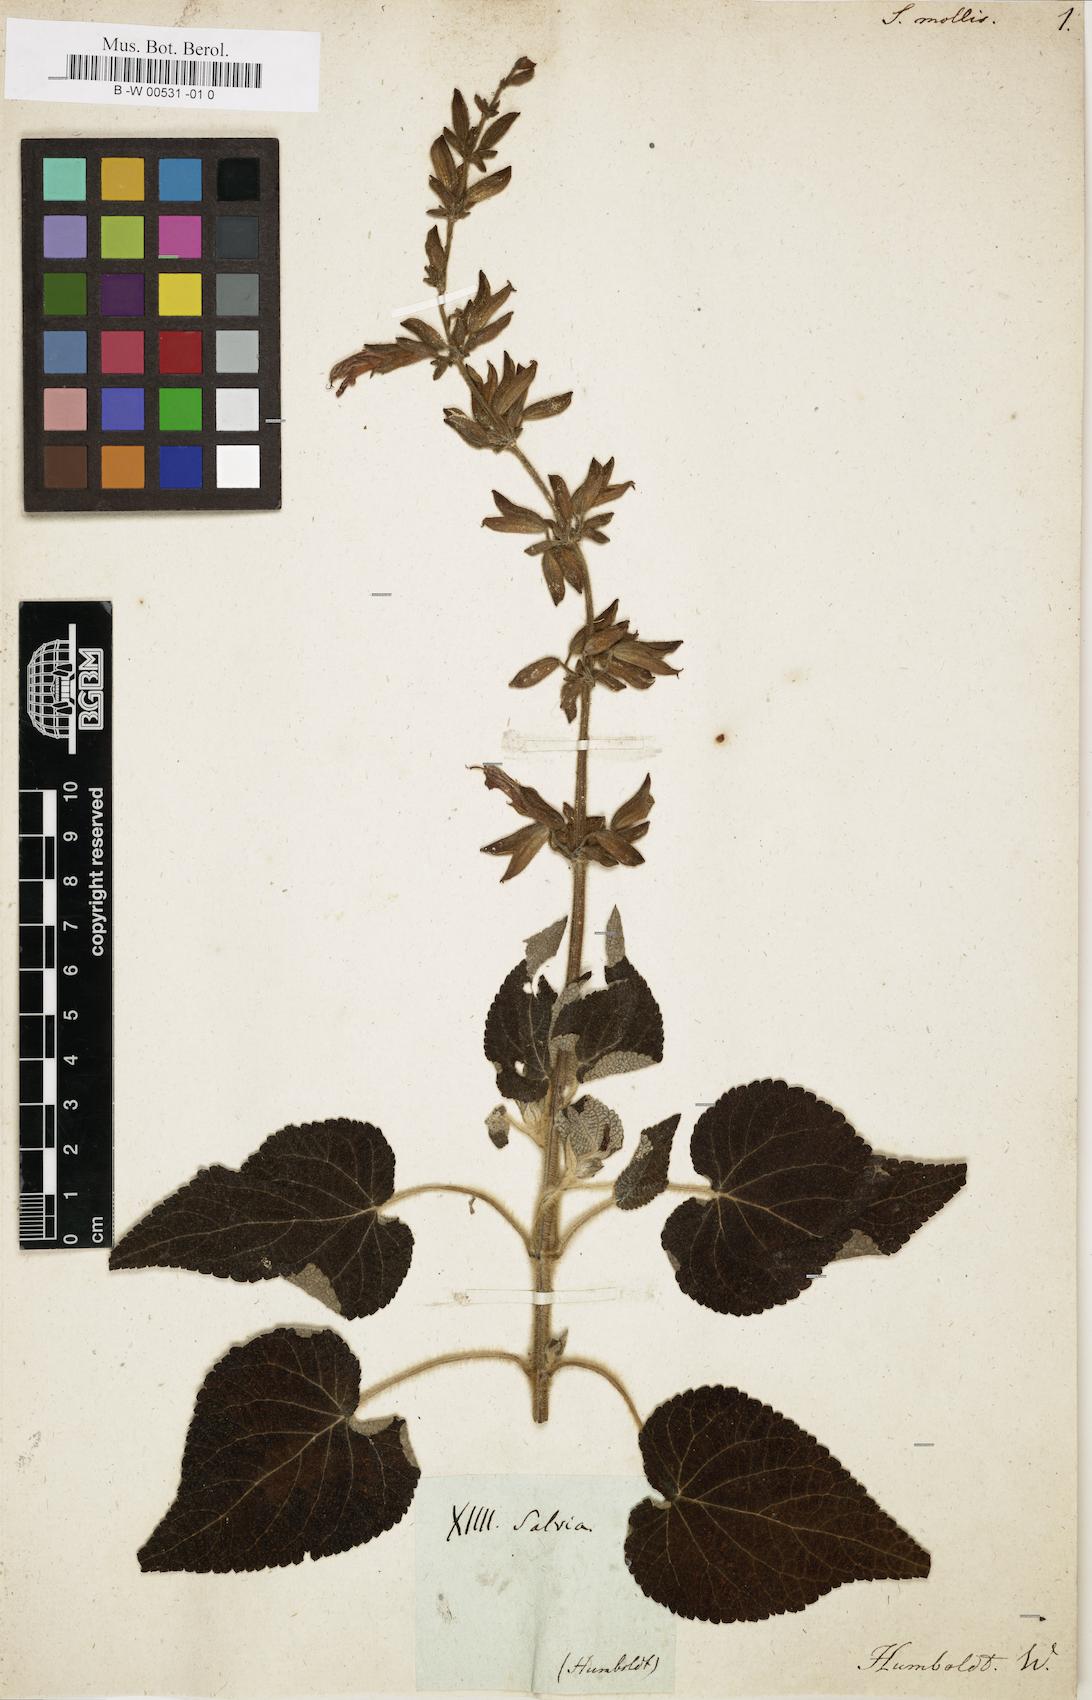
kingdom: Plantae
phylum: Tracheophyta
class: Magnoliopsida
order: Lamiales
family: Lamiaceae
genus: Salvia
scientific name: Salvia
